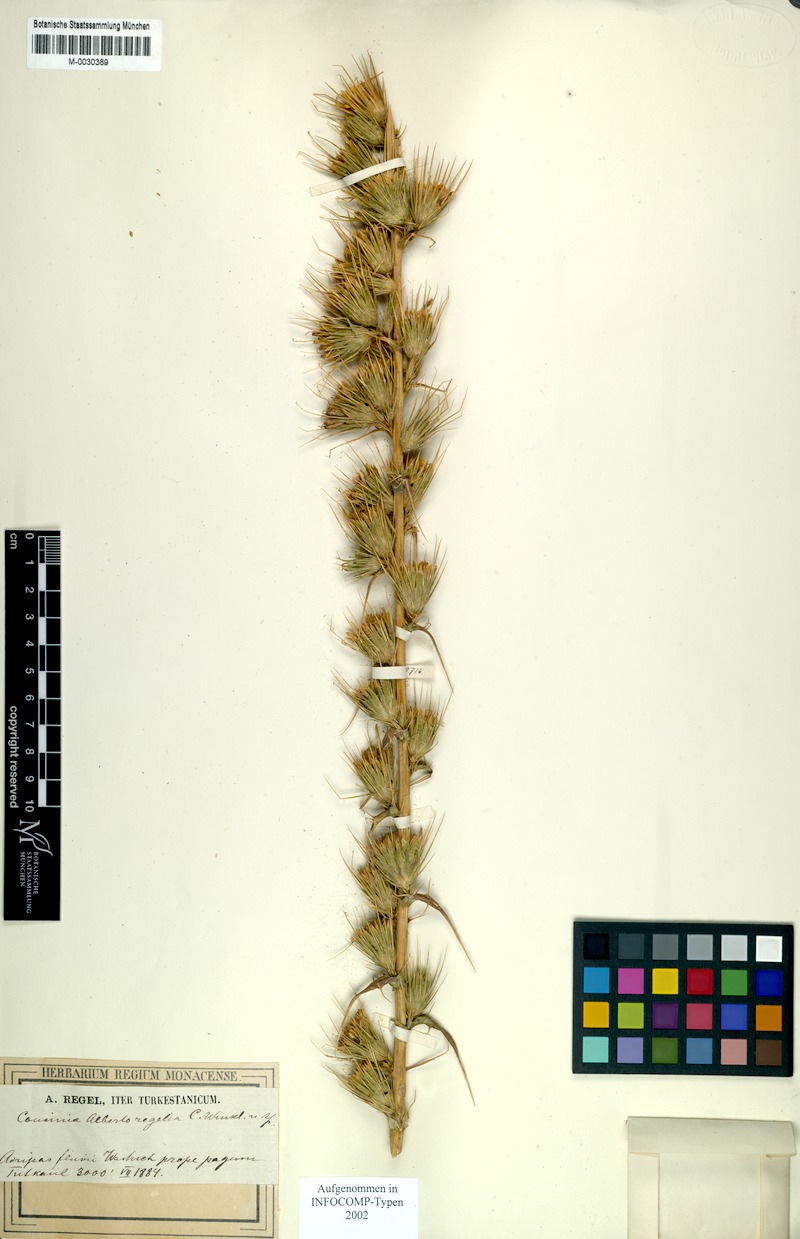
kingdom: Plantae
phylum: Tracheophyta
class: Magnoliopsida
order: Asterales
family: Asteraceae
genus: Cousinia
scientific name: Cousinia albertoregelia
